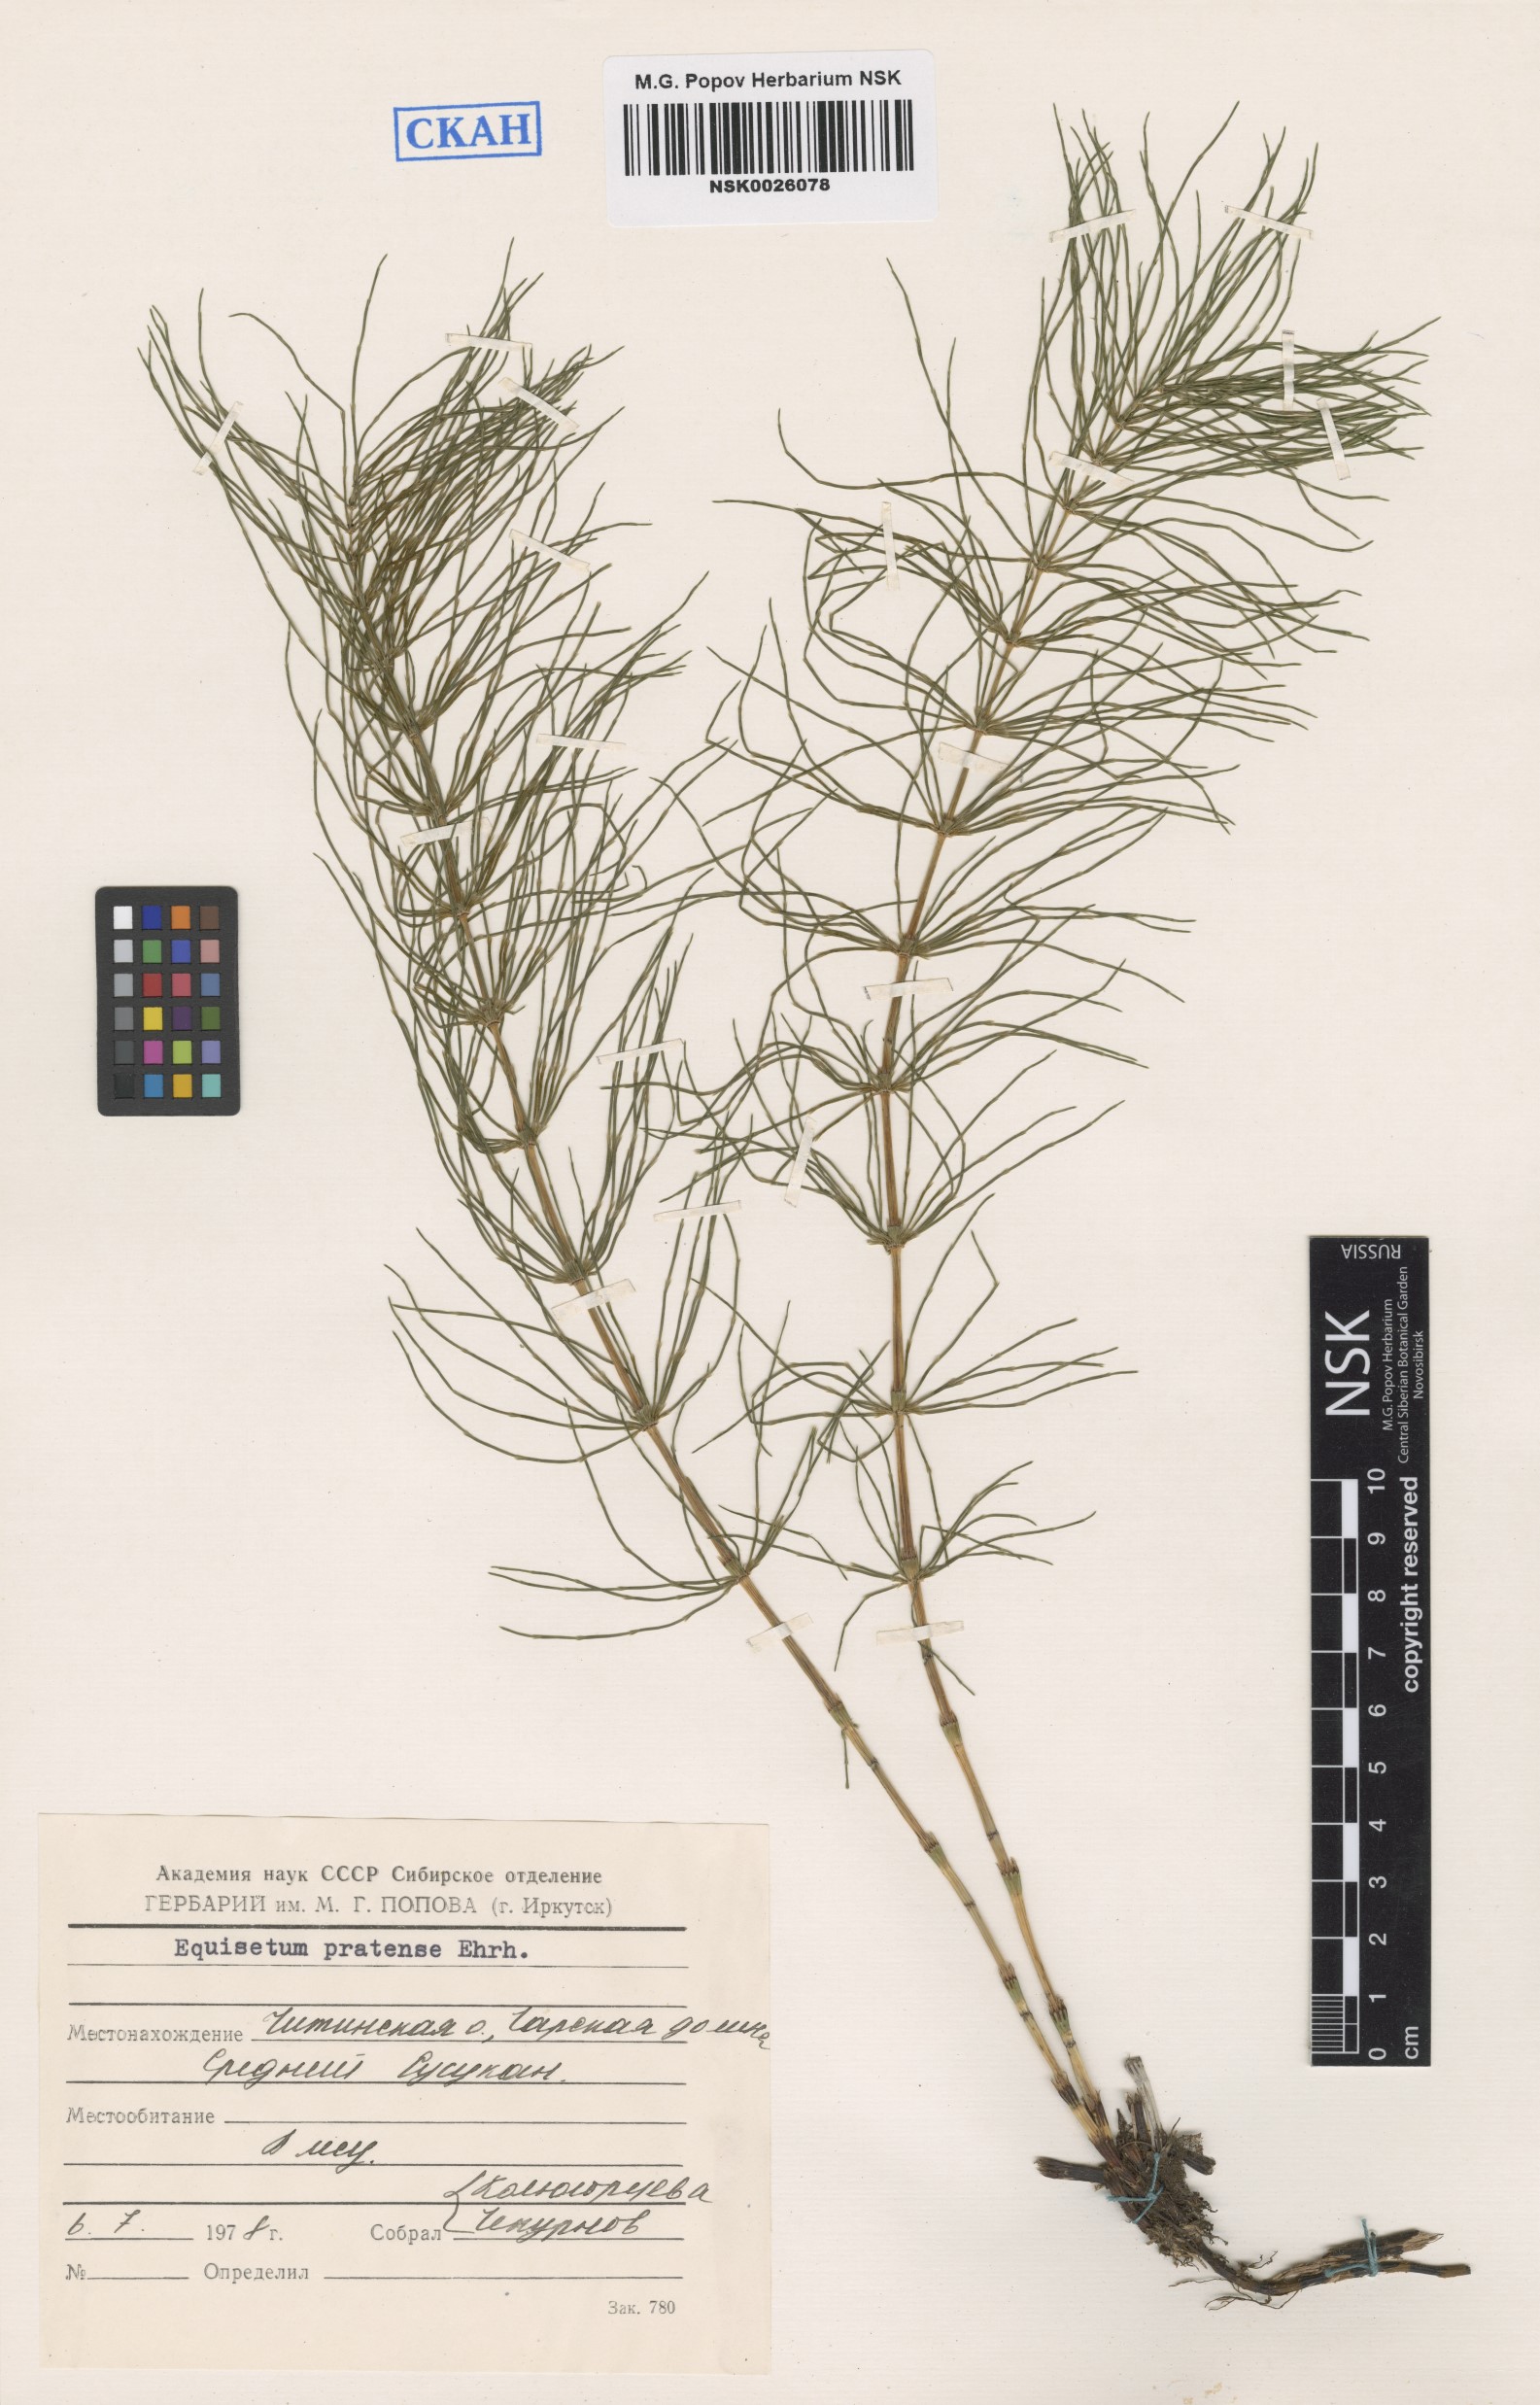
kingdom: Plantae
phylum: Tracheophyta
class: Polypodiopsida
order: Equisetales
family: Equisetaceae
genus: Equisetum
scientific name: Equisetum pratense
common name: Meadow horsetail
